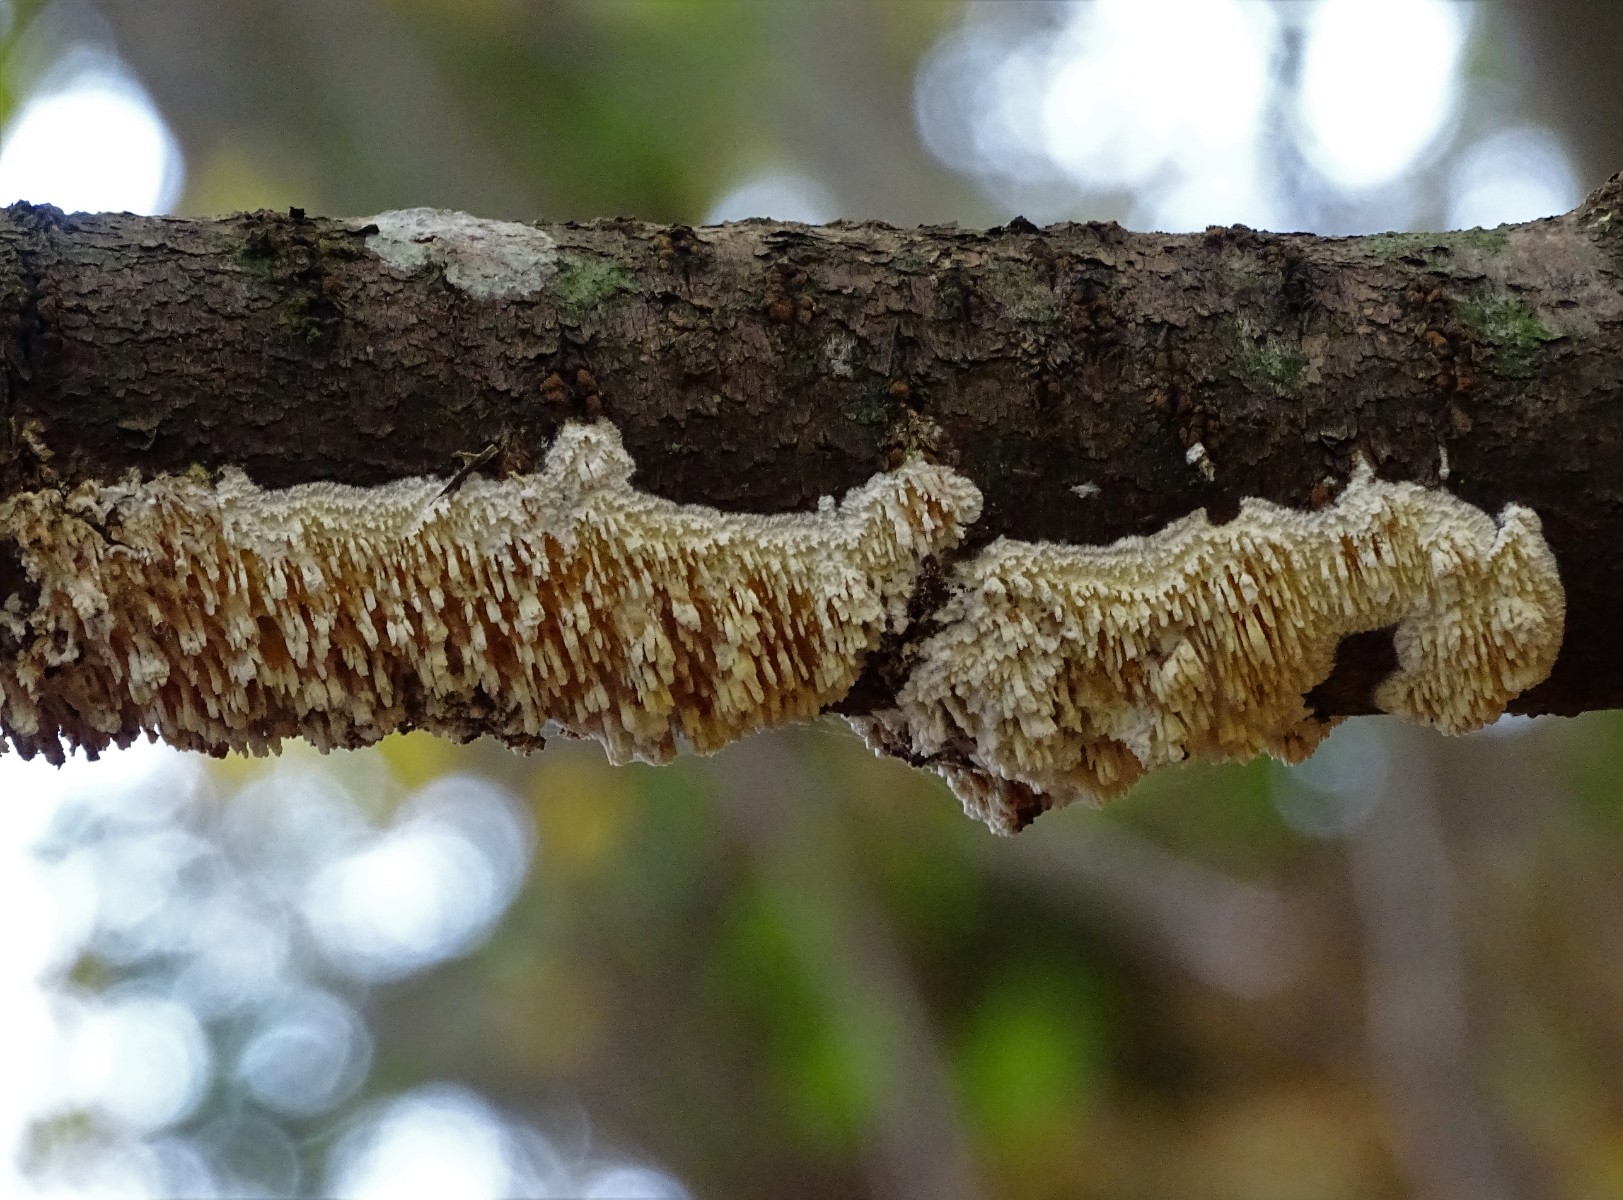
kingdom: Fungi
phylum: Basidiomycota
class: Agaricomycetes
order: Hymenochaetales
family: Schizoporaceae
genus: Xylodon
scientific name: Xylodon radula
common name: grovtandet kalkskind
